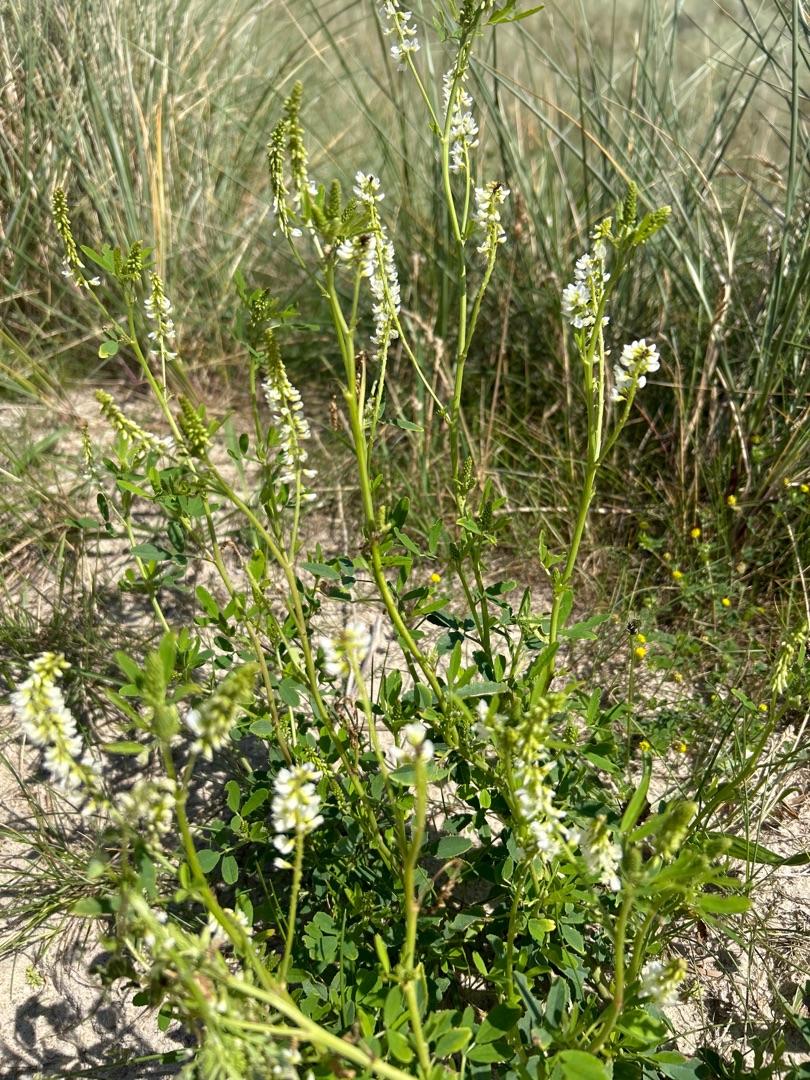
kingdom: Plantae
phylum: Tracheophyta
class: Magnoliopsida
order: Fabales
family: Fabaceae
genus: Melilotus
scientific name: Melilotus albus
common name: Hvid stenkløver
